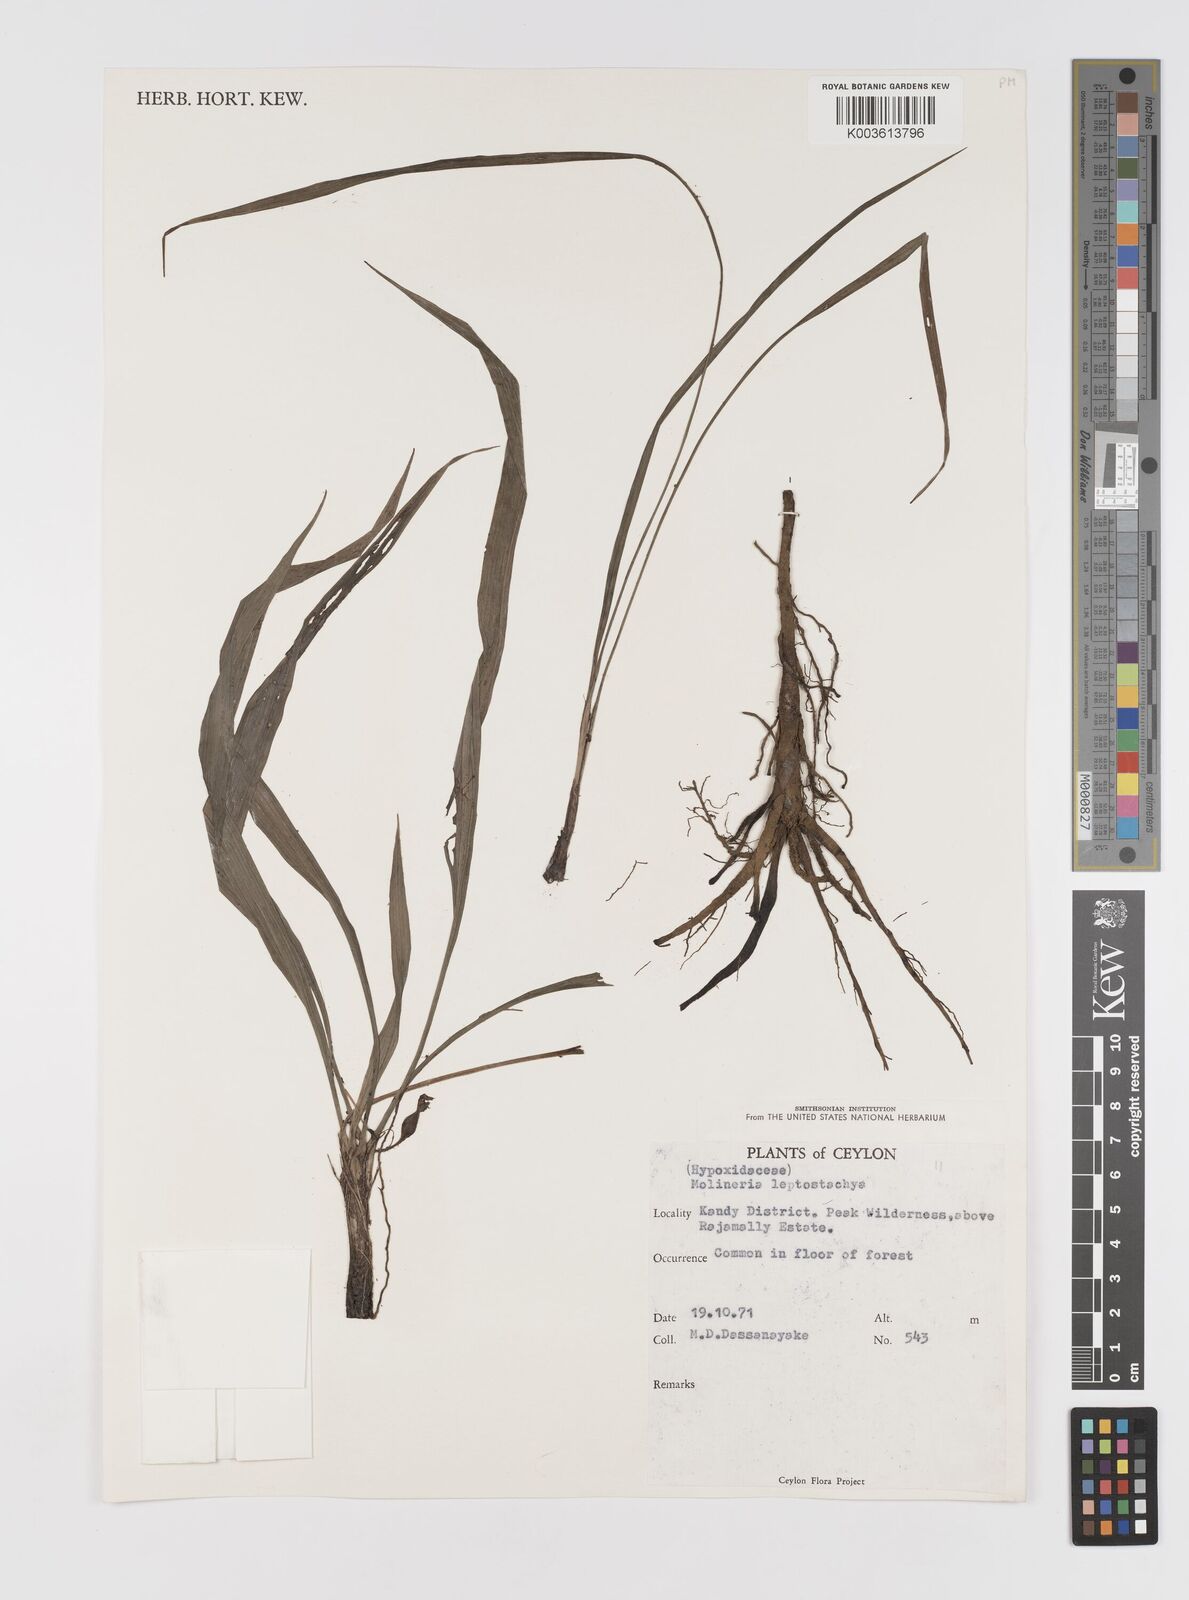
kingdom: Plantae
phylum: Tracheophyta
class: Liliopsida
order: Asparagales
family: Hypoxidaceae
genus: Curculigo
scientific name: Curculigo trichocarpa
